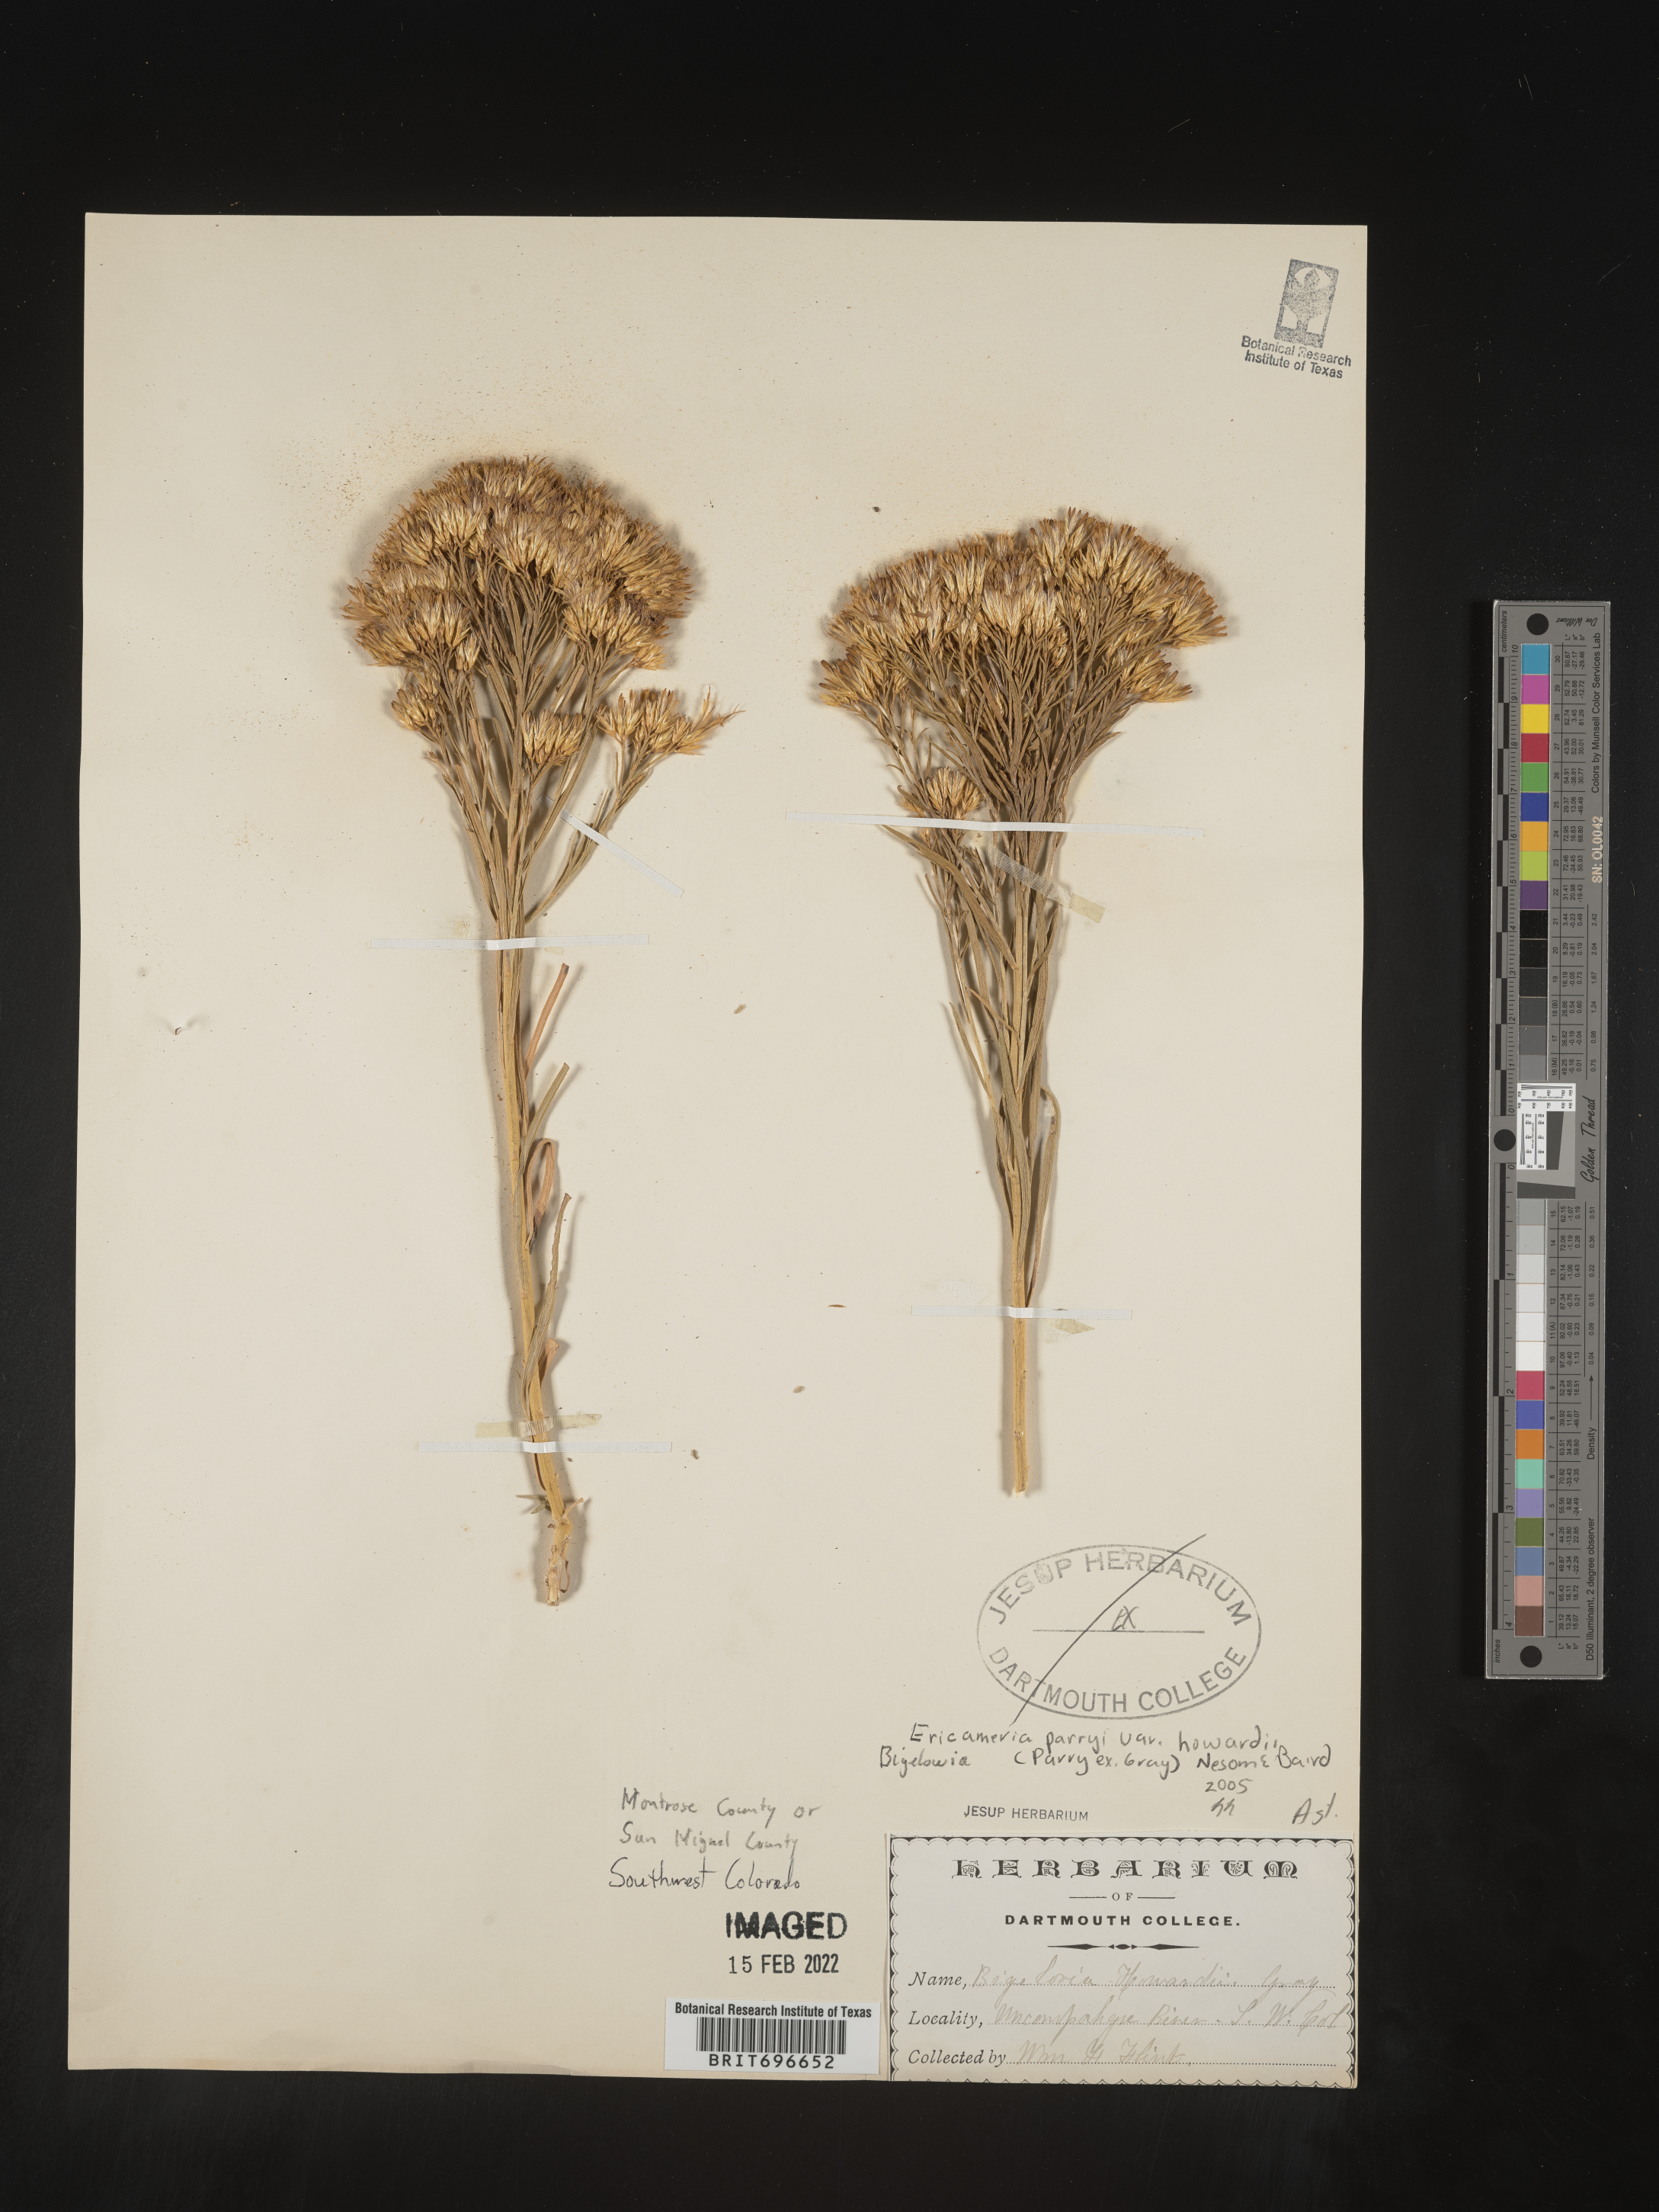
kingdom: Plantae
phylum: Tracheophyta
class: Magnoliopsida
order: Asterales
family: Asteraceae
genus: Ericameria
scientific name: Ericameria parryi
